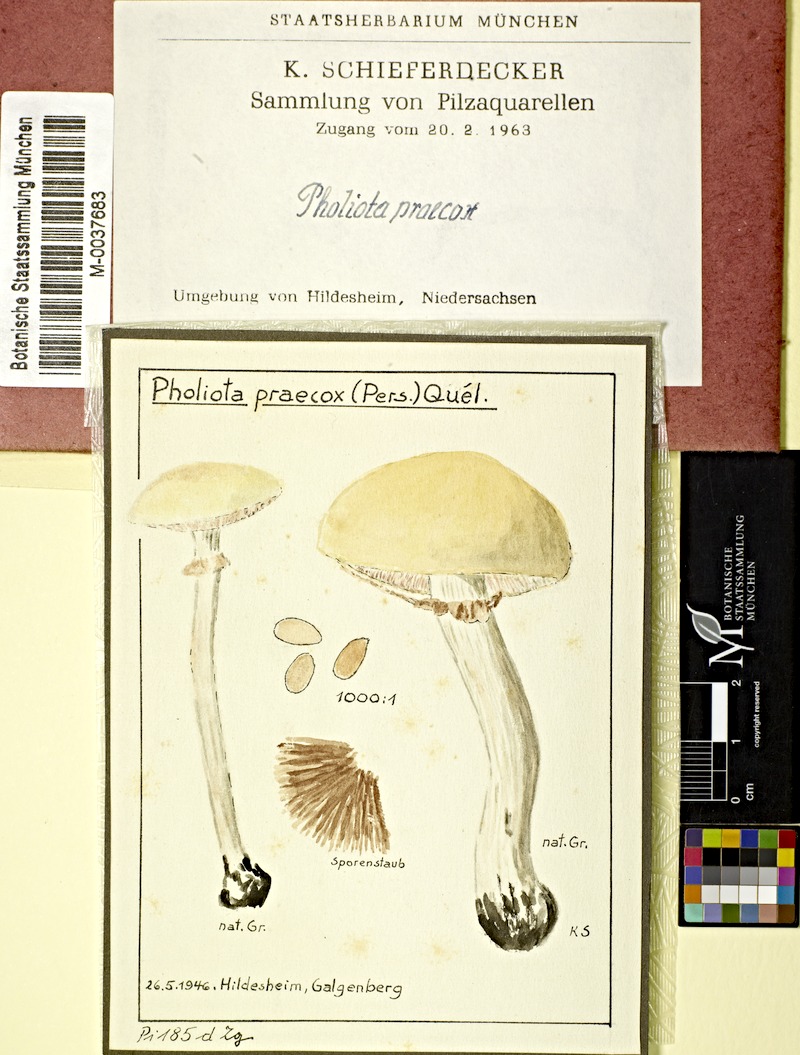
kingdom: Fungi
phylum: Basidiomycota
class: Agaricomycetes
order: Agaricales
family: Strophariaceae
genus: Agrocybe
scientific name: Agrocybe praecox
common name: Spring fieldcap
